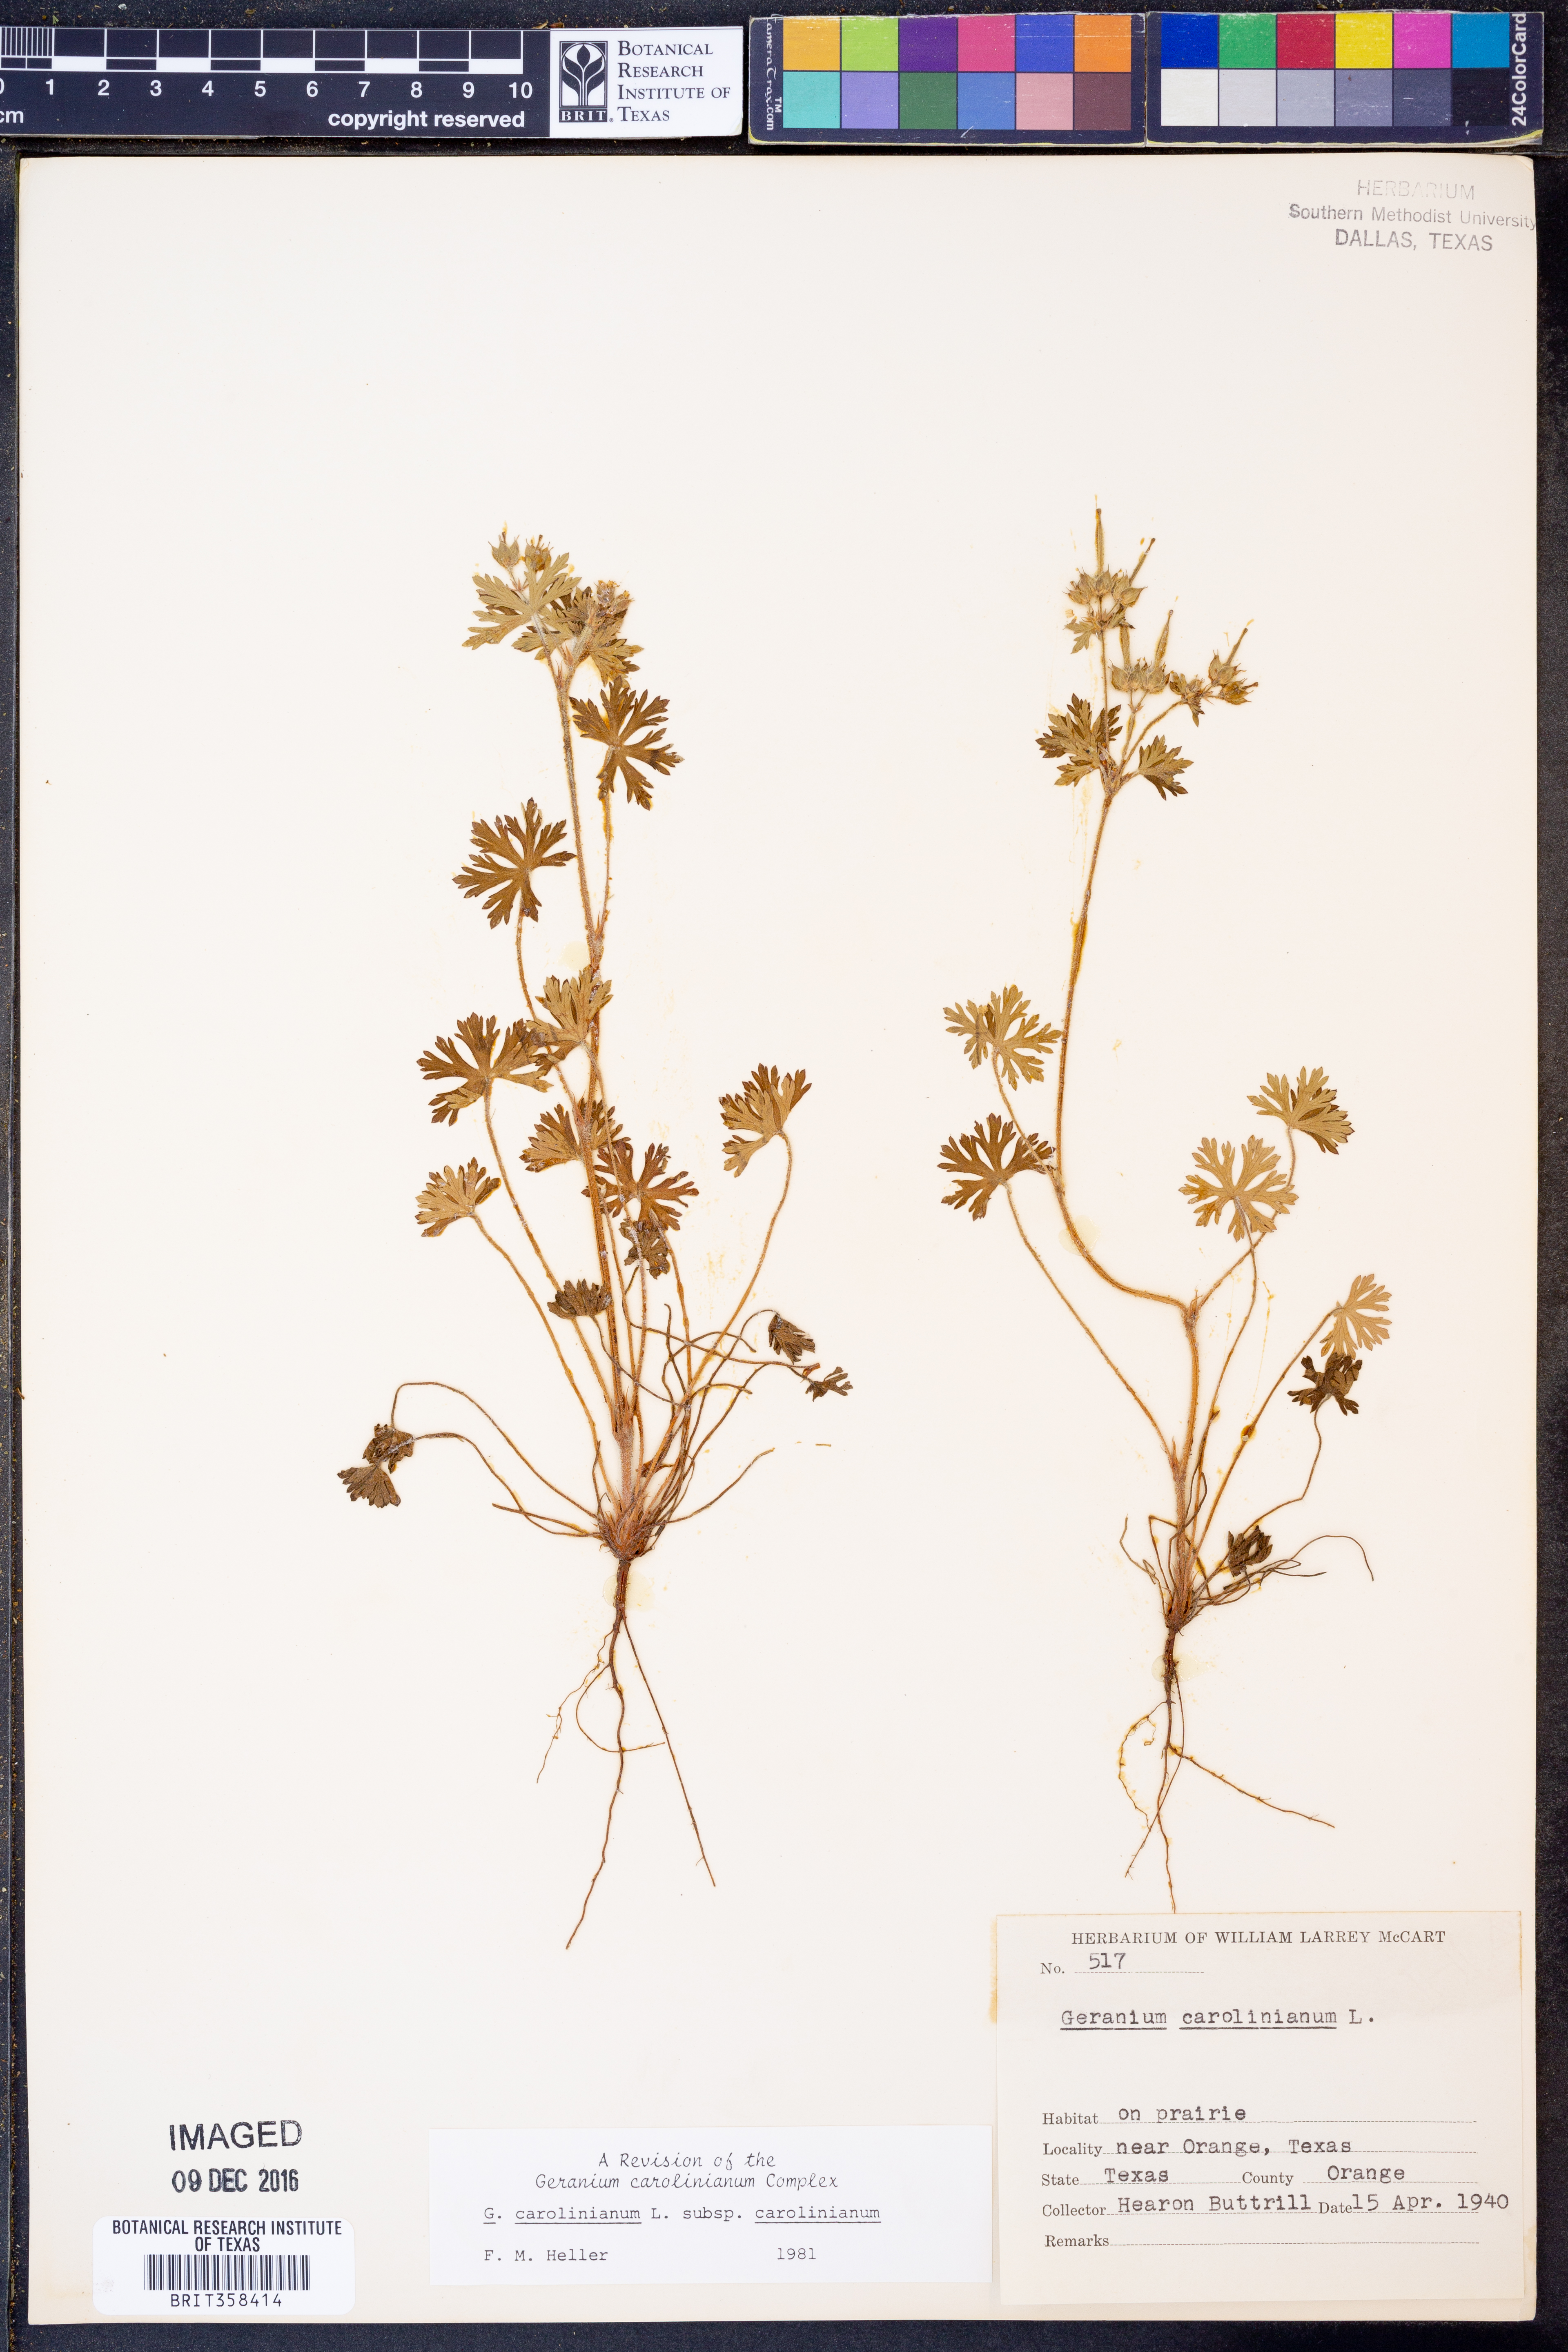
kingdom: Plantae
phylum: Tracheophyta
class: Magnoliopsida
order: Geraniales
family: Geraniaceae
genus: Geranium
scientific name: Geranium carolinianum
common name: Carolina crane's-bill
